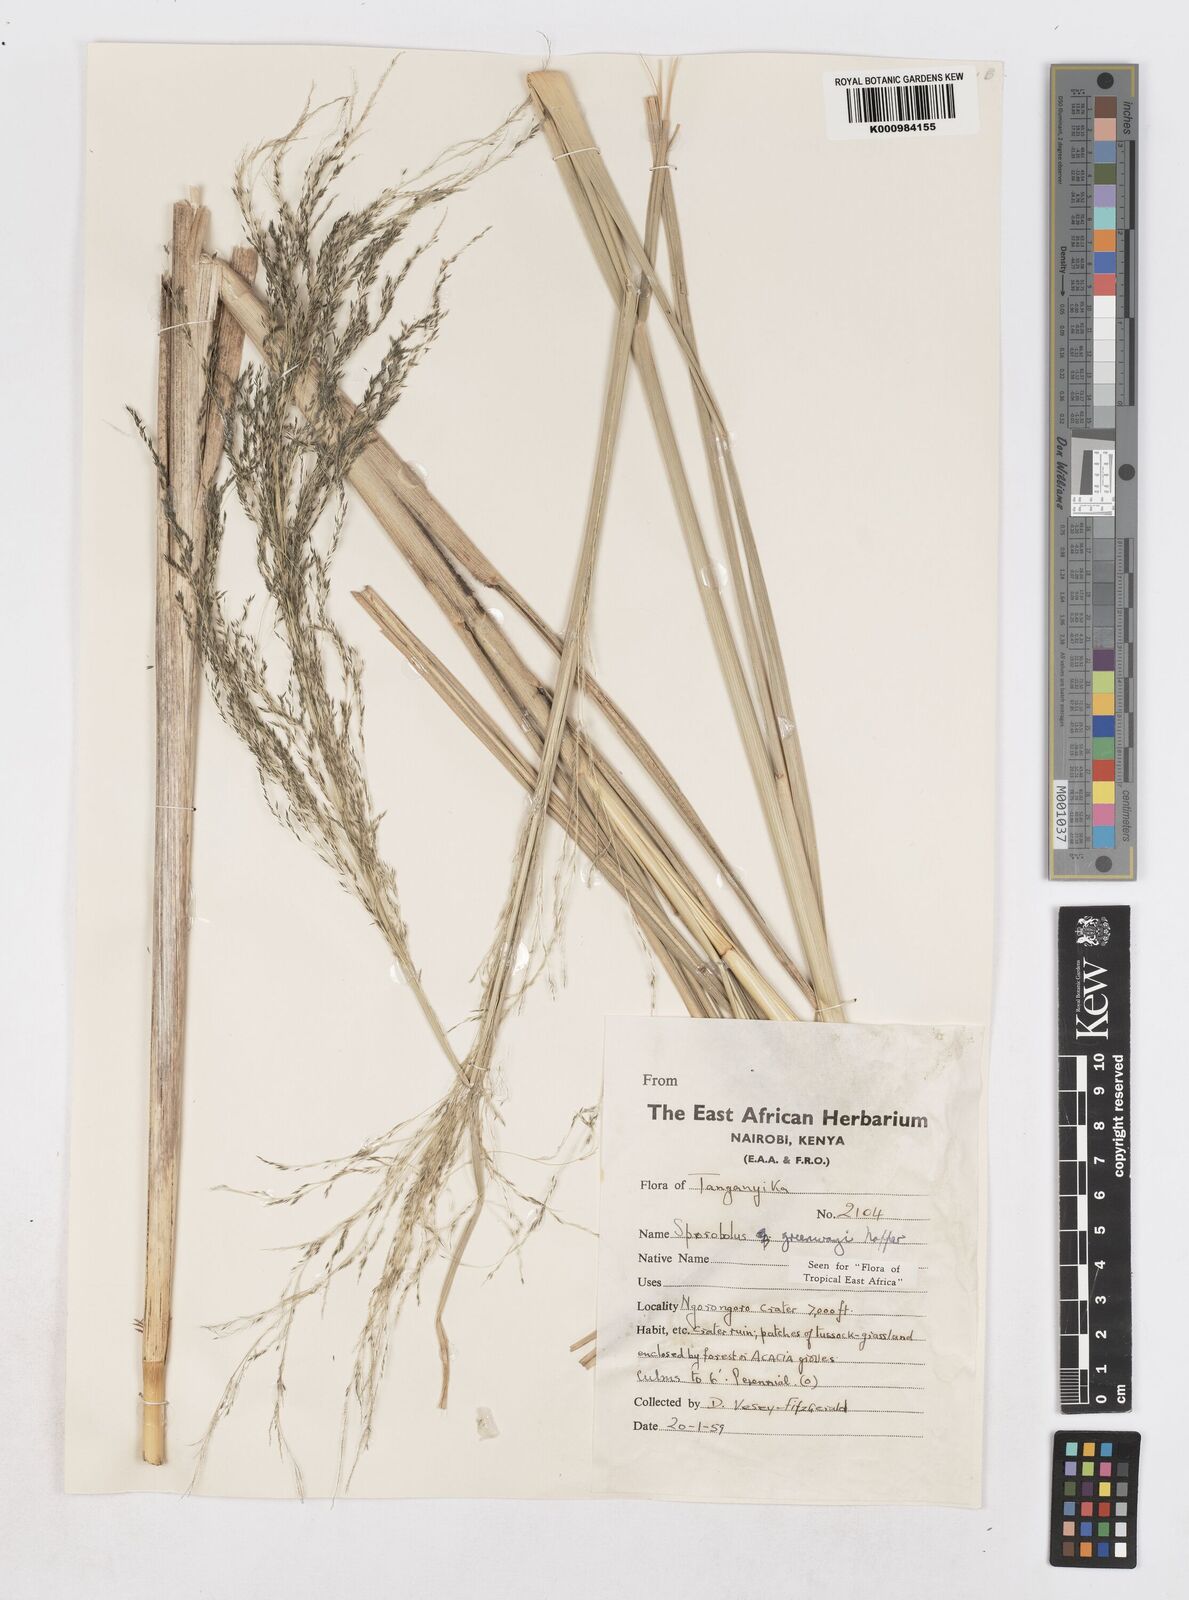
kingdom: Plantae
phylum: Tracheophyta
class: Liliopsida
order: Poales
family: Poaceae
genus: Sporobolus
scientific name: Sporobolus macranthelus
